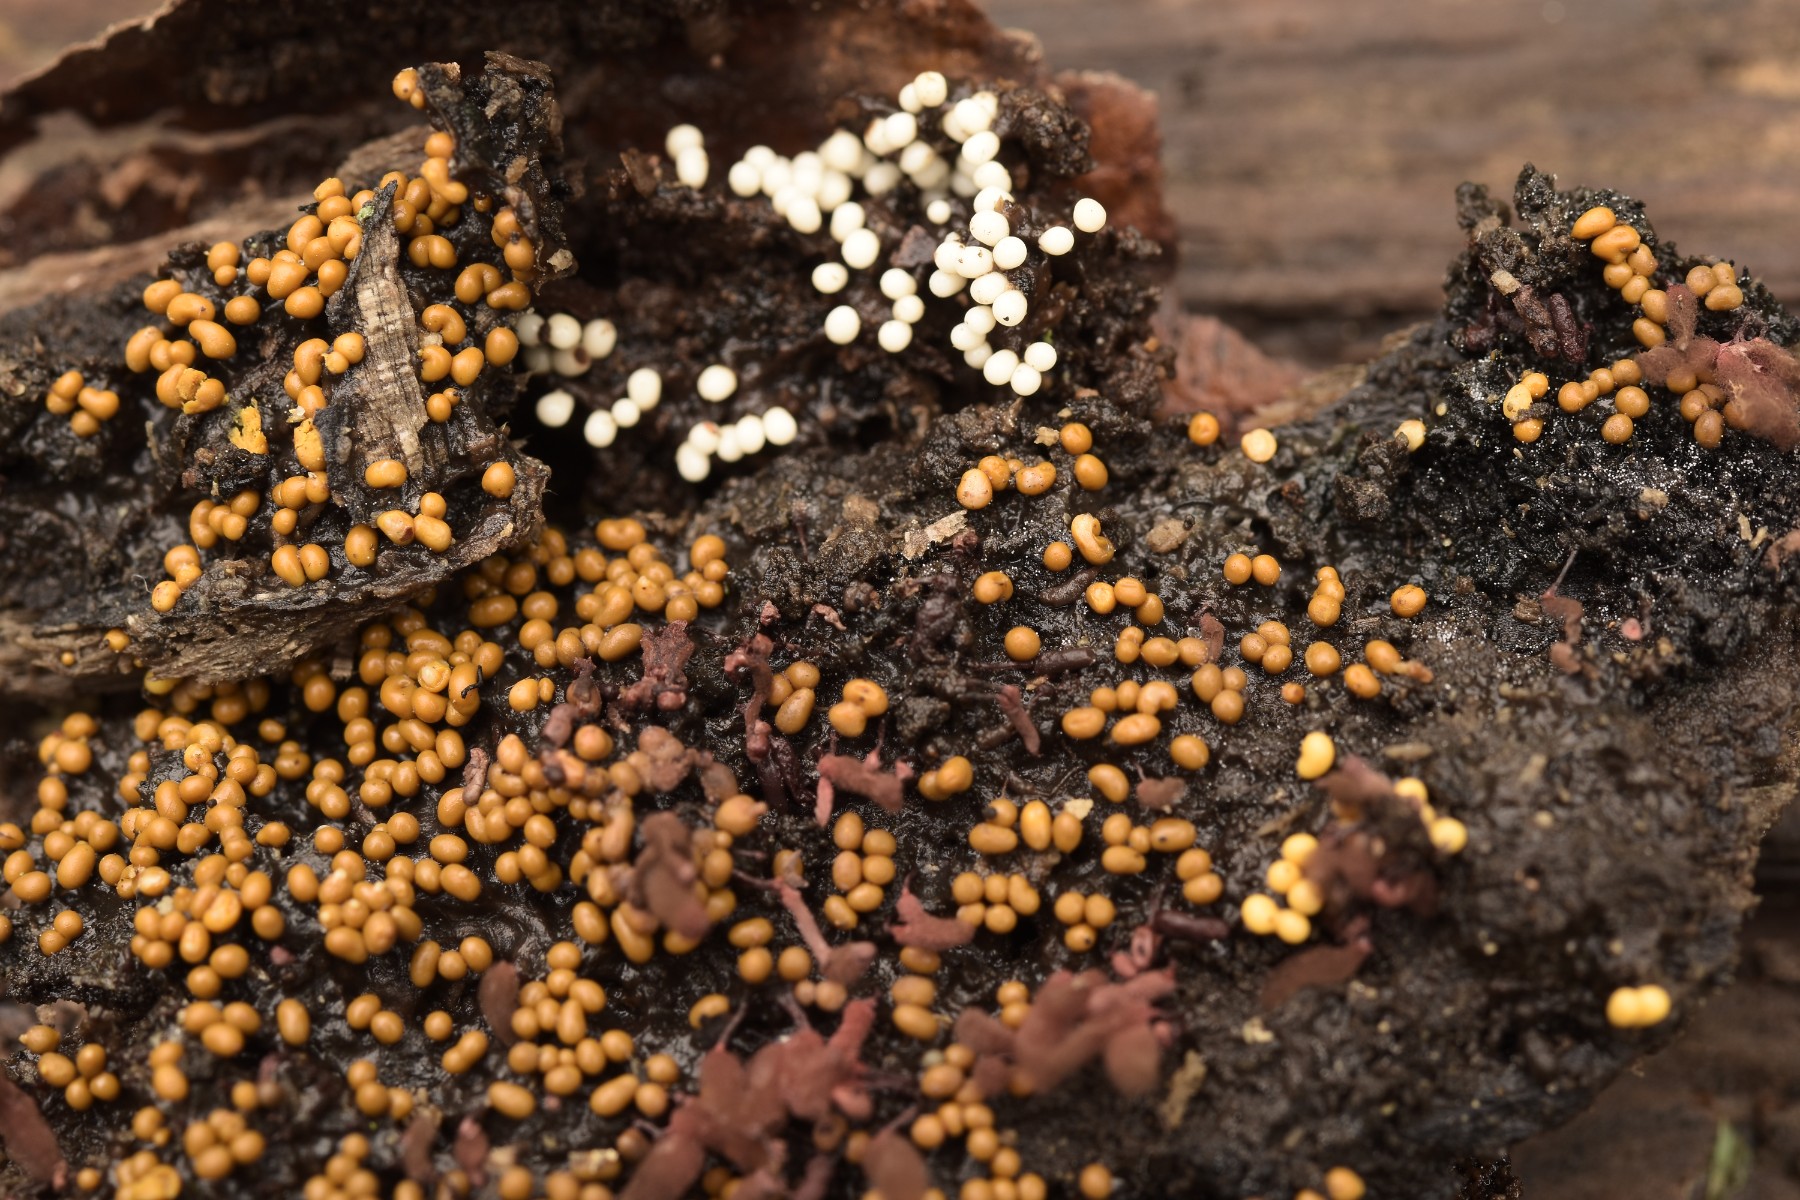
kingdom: Protozoa
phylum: Mycetozoa
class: Myxomycetes
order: Trichiales
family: Trichiaceae
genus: Trichia
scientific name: Trichia varia
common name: foranderlig hårbold
